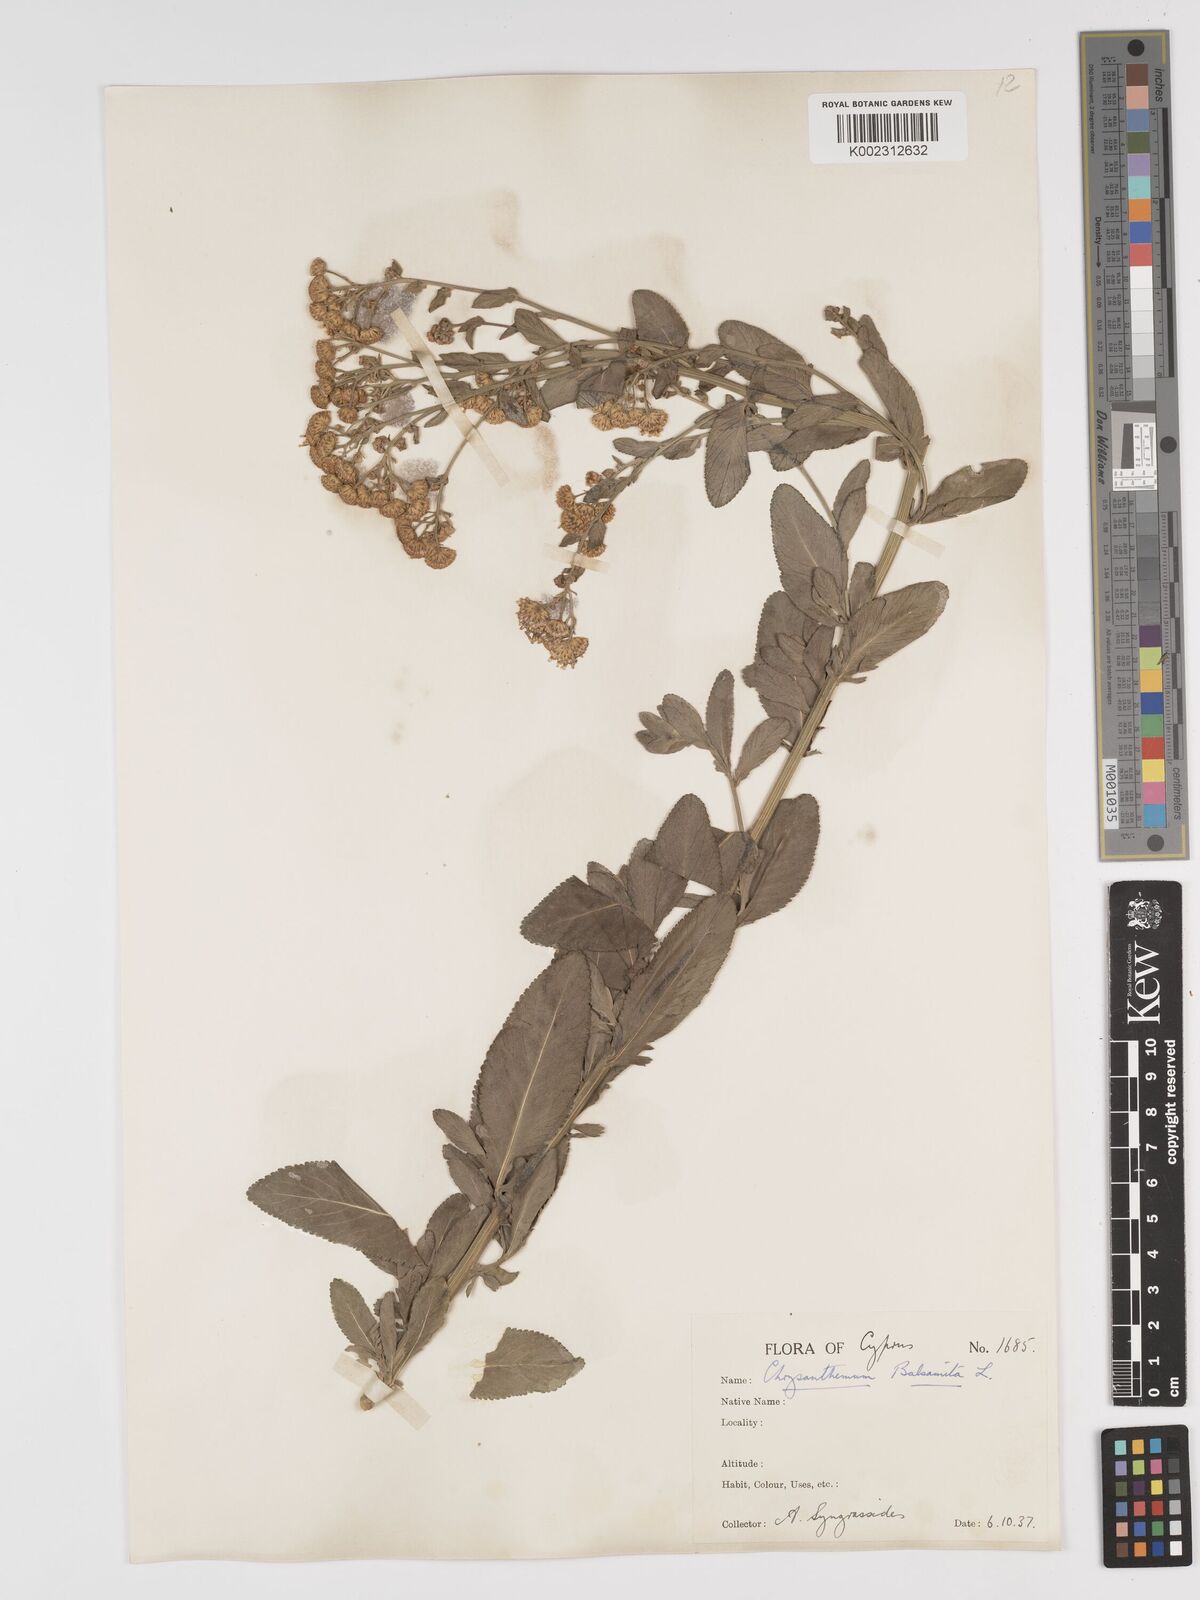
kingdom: Plantae
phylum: Tracheophyta
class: Magnoliopsida
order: Asterales
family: Asteraceae
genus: Tanacetum
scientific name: Tanacetum balsamita
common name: Costmary
